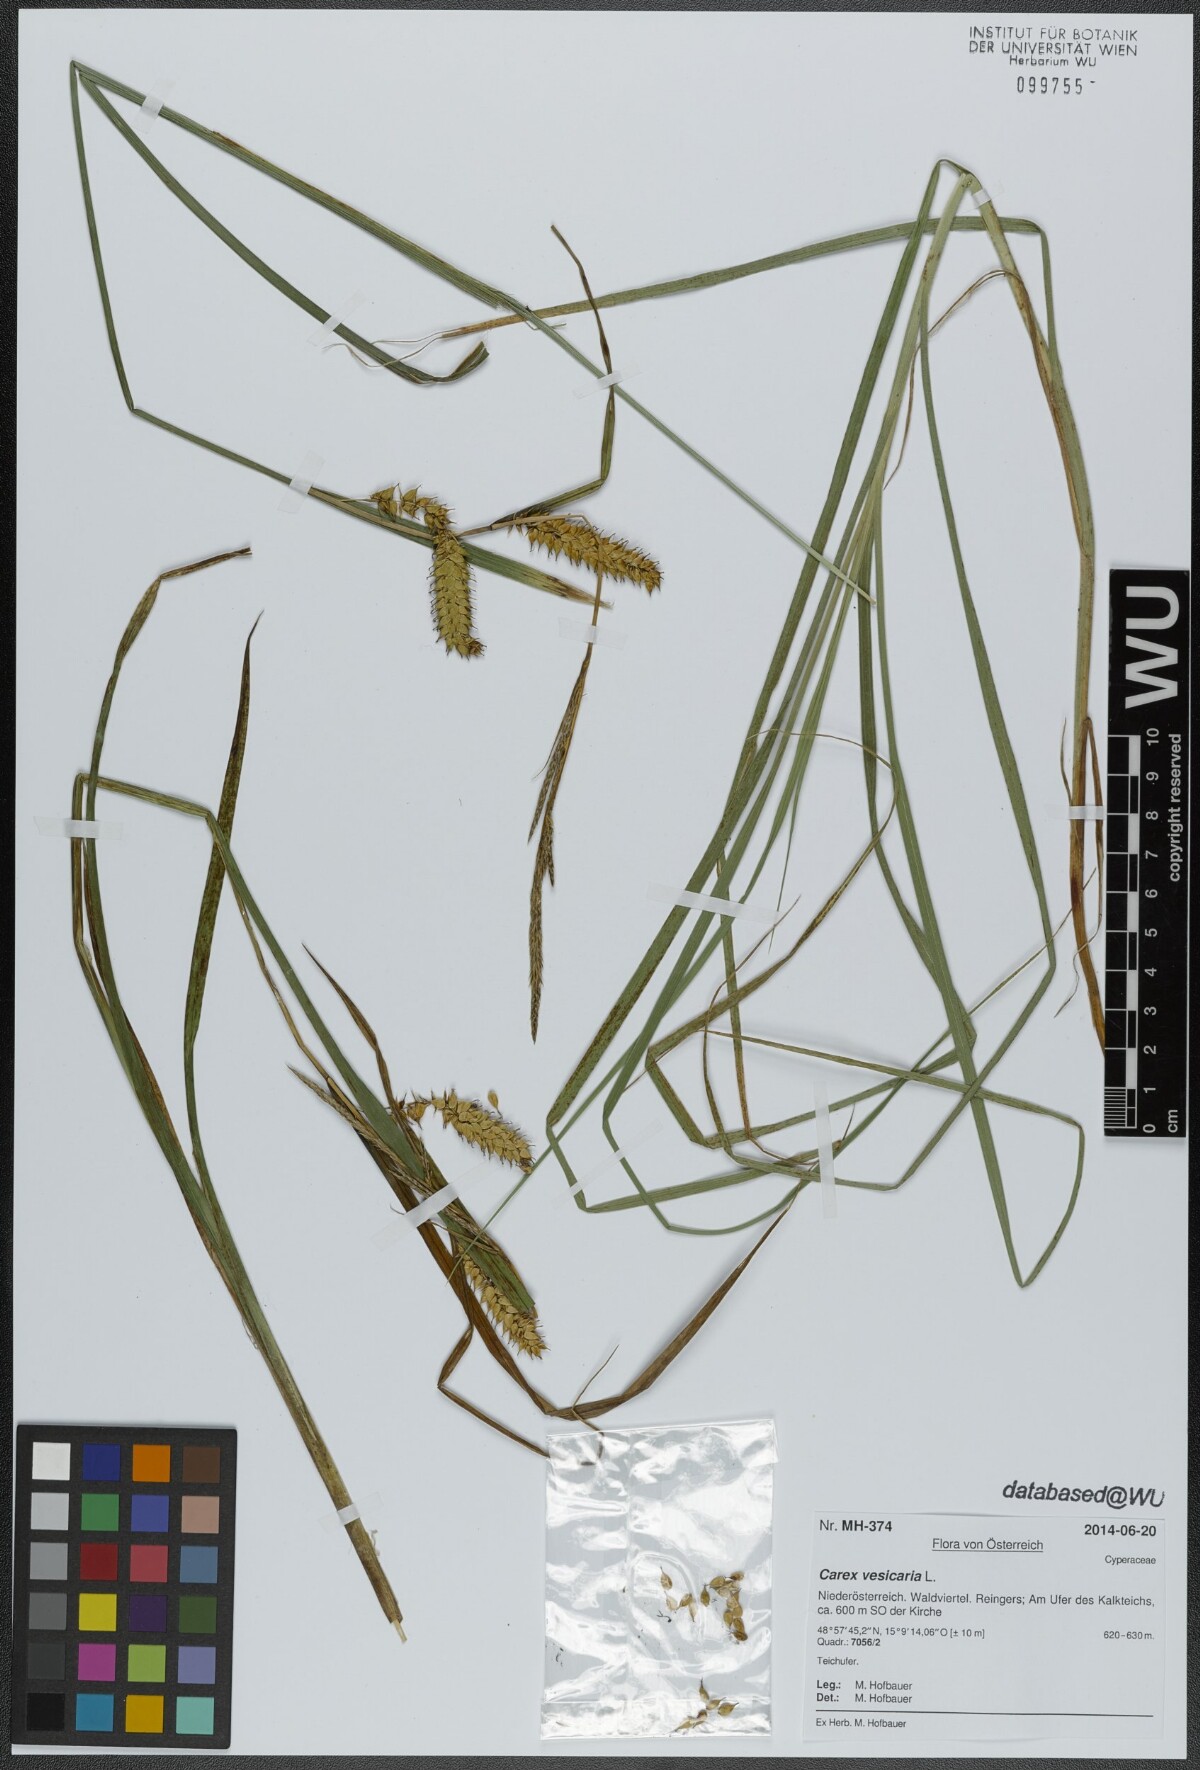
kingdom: Plantae
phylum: Tracheophyta
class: Liliopsida
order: Poales
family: Cyperaceae
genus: Carex
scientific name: Carex vesicaria
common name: Bladder-sedge
